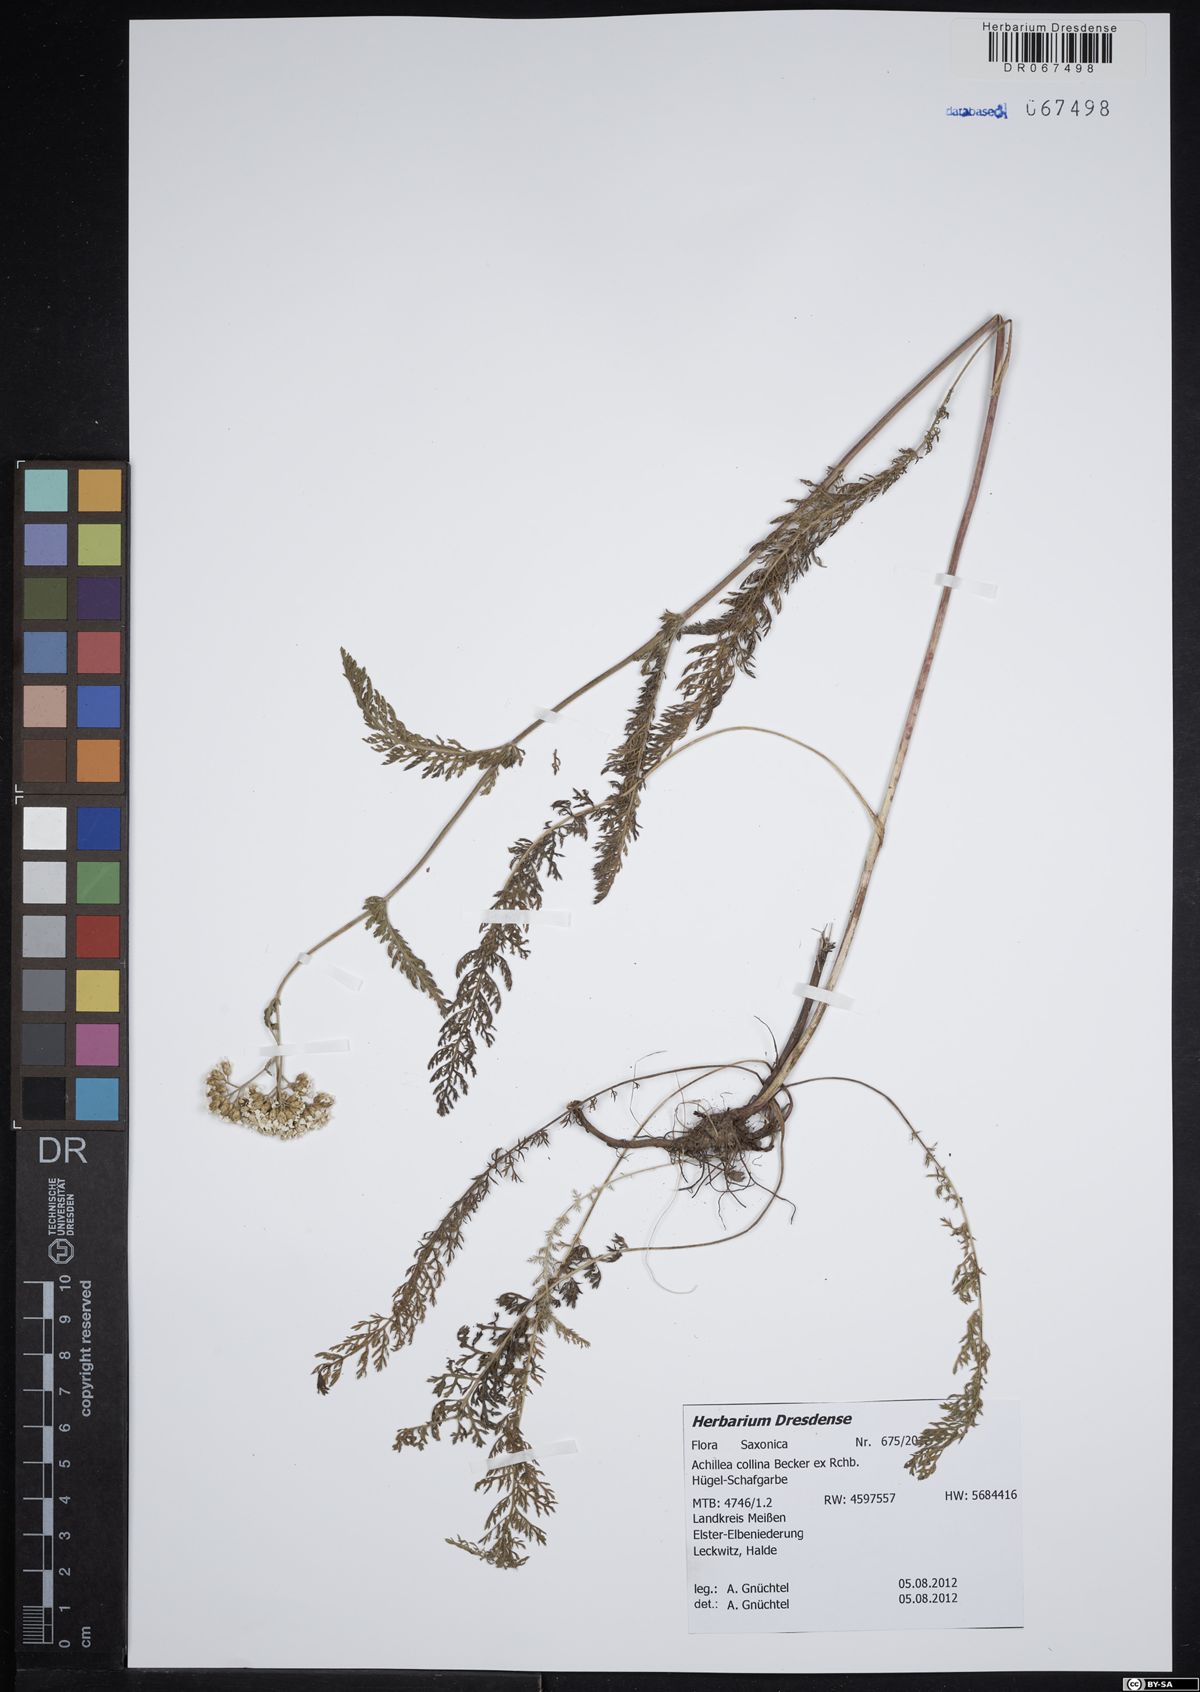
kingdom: Plantae
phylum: Tracheophyta
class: Magnoliopsida
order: Asterales
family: Asteraceae
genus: Achillea
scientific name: Achillea collina
